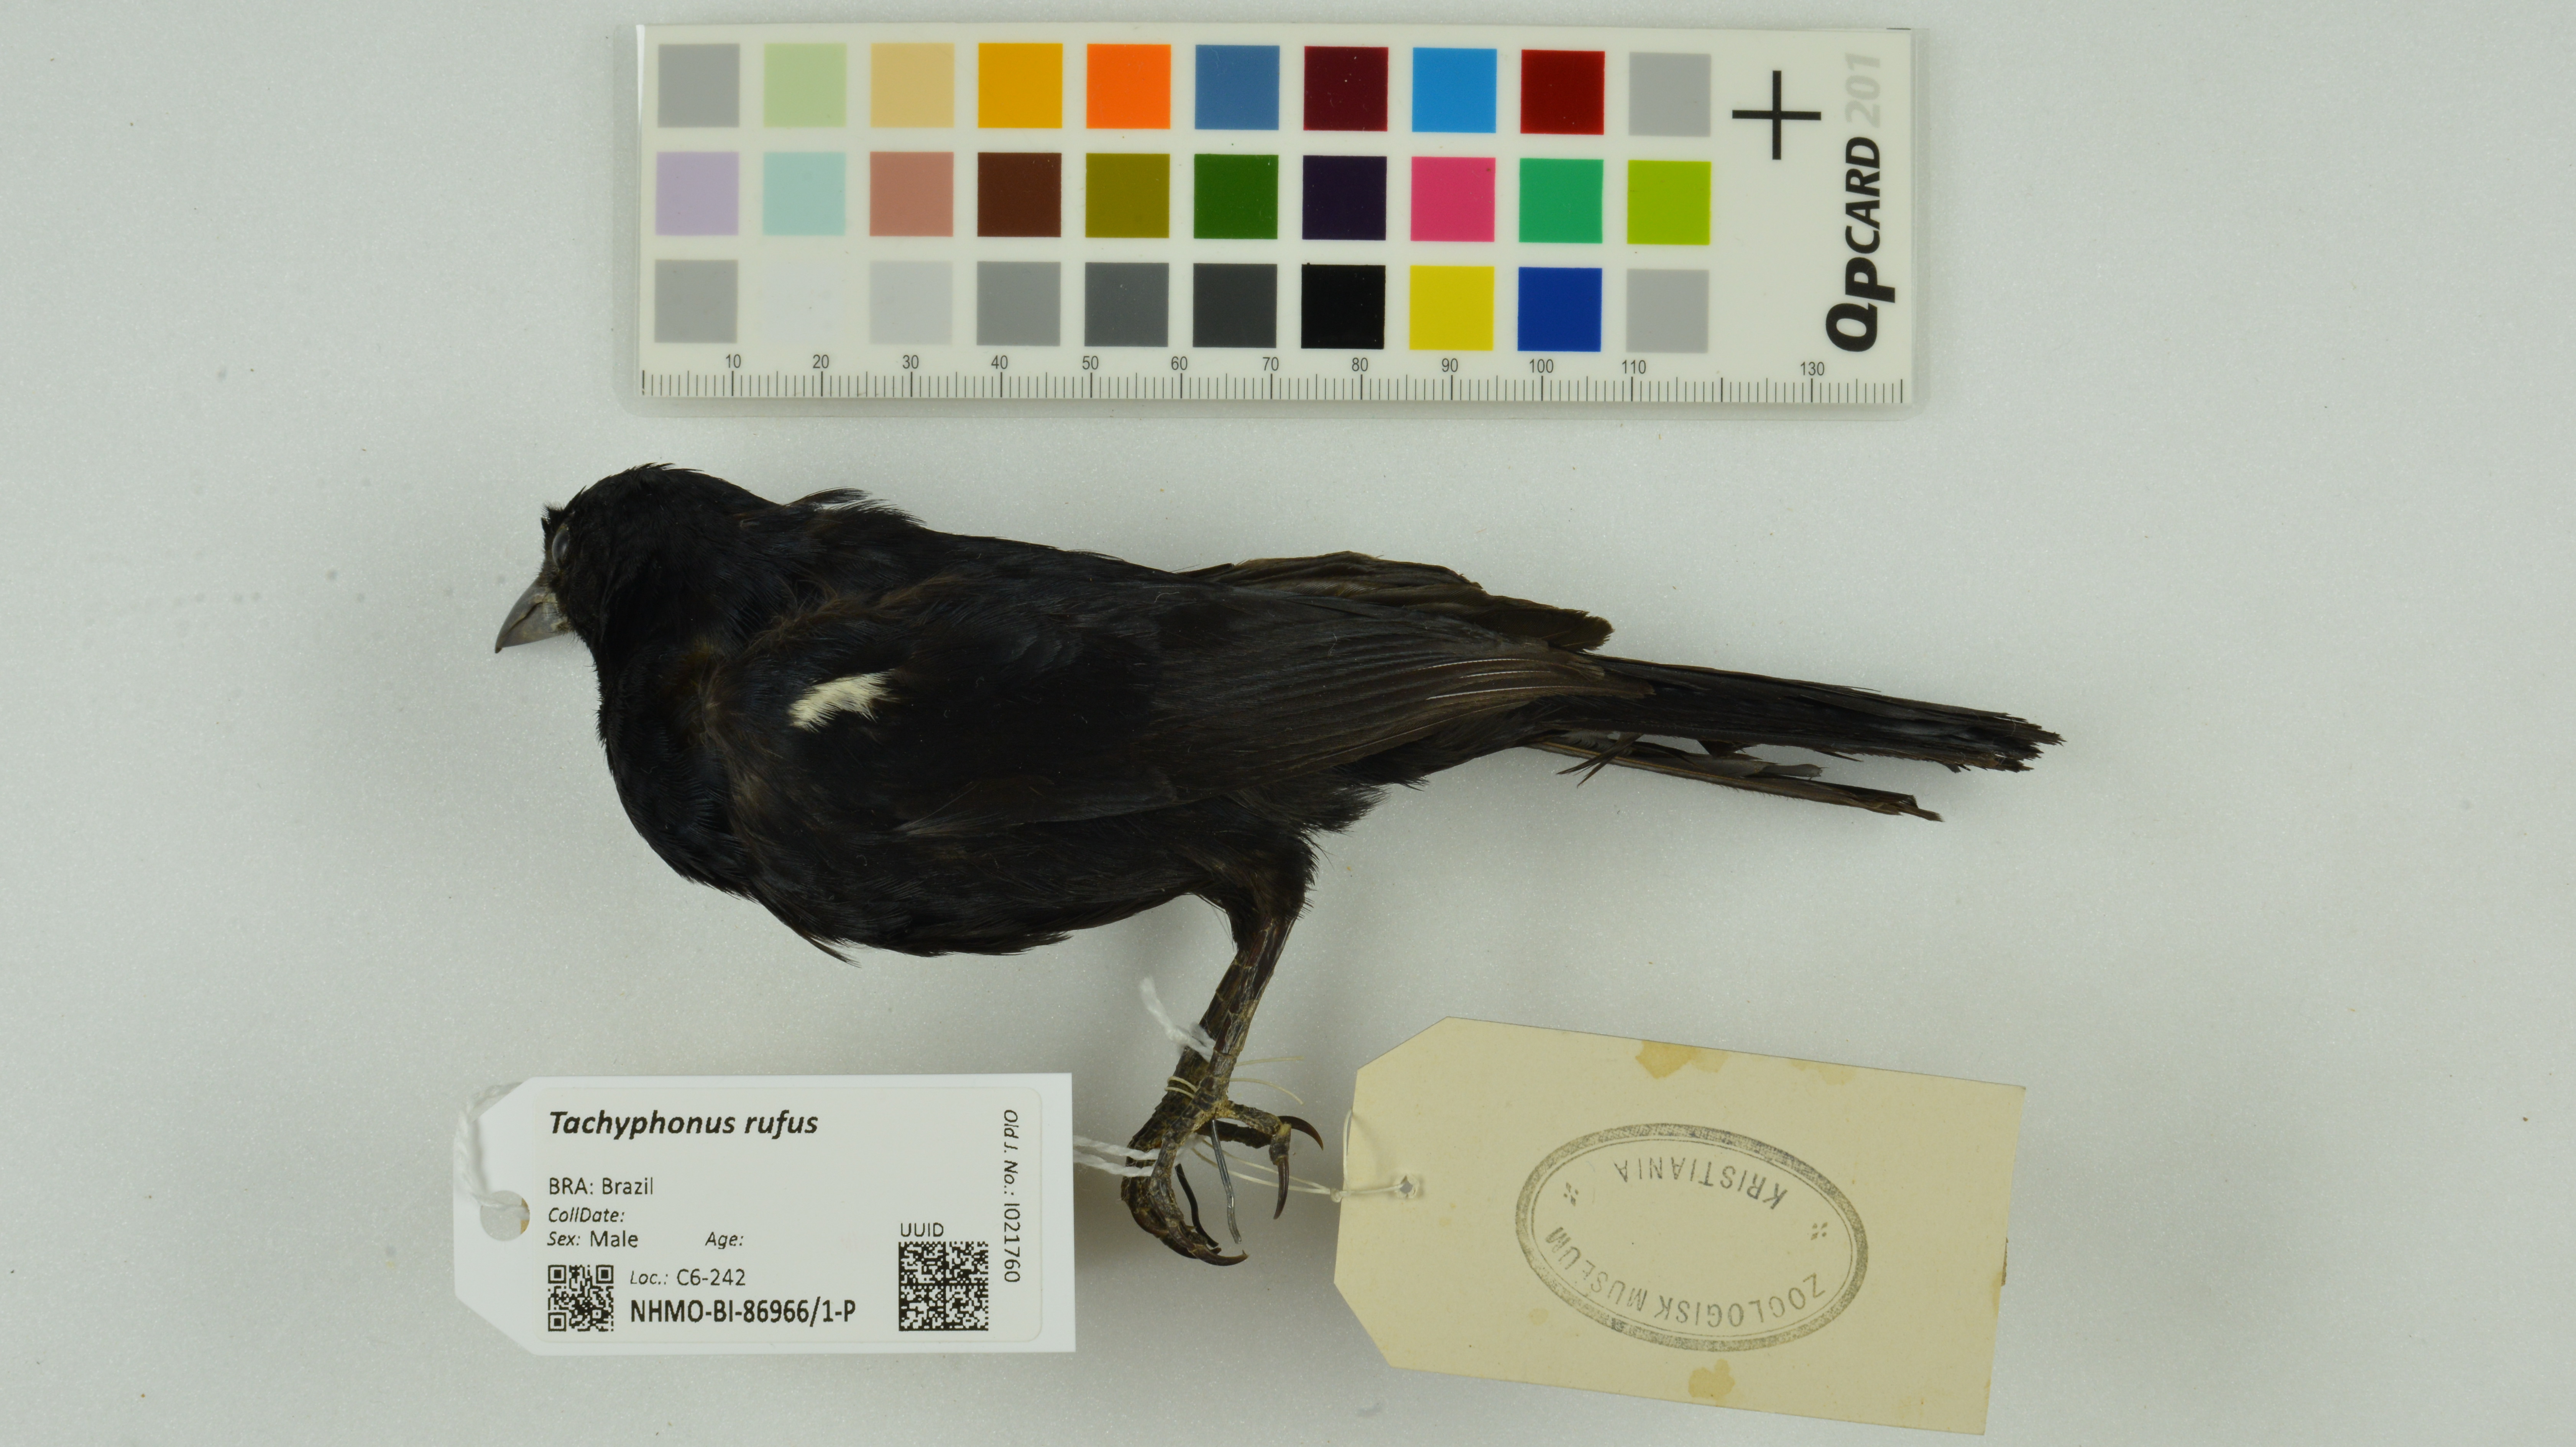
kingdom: Animalia
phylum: Chordata
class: Aves
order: Passeriformes
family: Thraupidae
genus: Tachyphonus
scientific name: Tachyphonus rufus
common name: White-lined tanager
